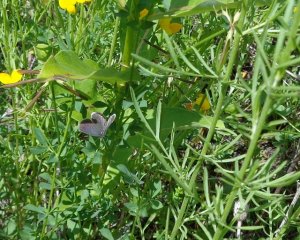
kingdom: Animalia
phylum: Arthropoda
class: Insecta
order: Lepidoptera
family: Lycaenidae
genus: Elkalyce
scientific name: Elkalyce comyntas
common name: Eastern Tailed-Blue
